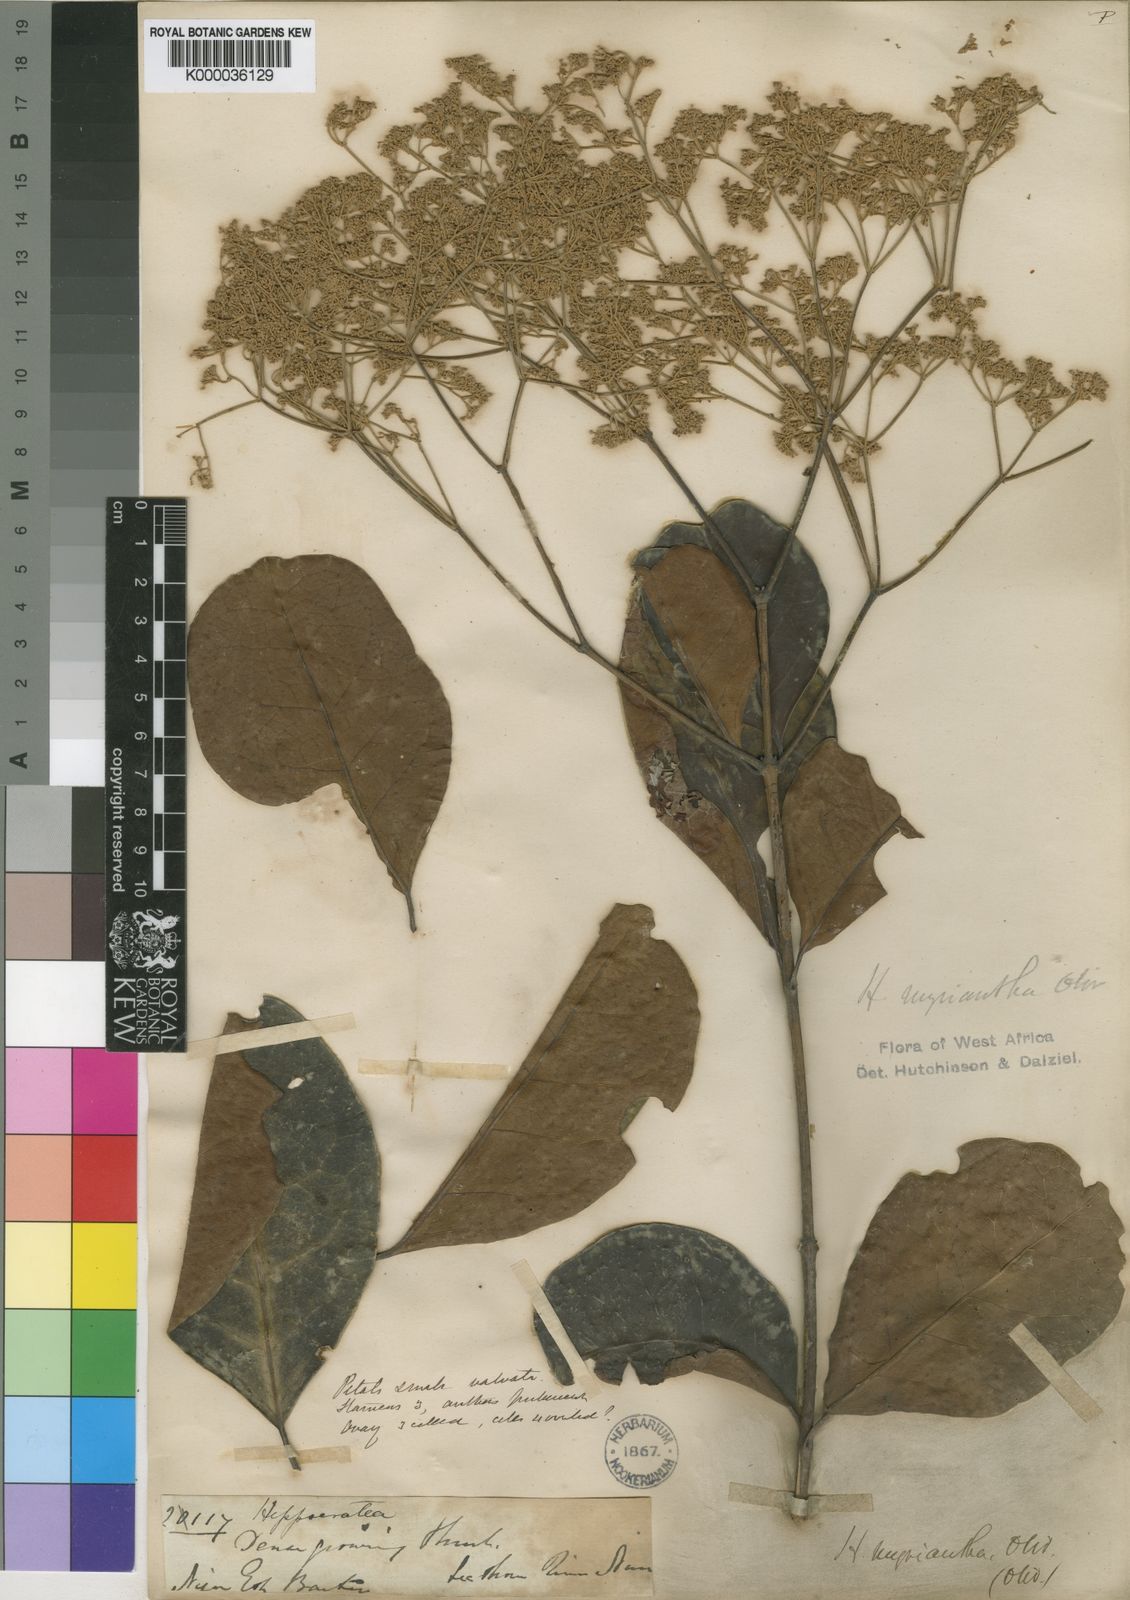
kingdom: Plantae
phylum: Tracheophyta
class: Magnoliopsida
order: Celastrales
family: Celastraceae
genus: Hippocratea
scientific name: Hippocratea myriantha
